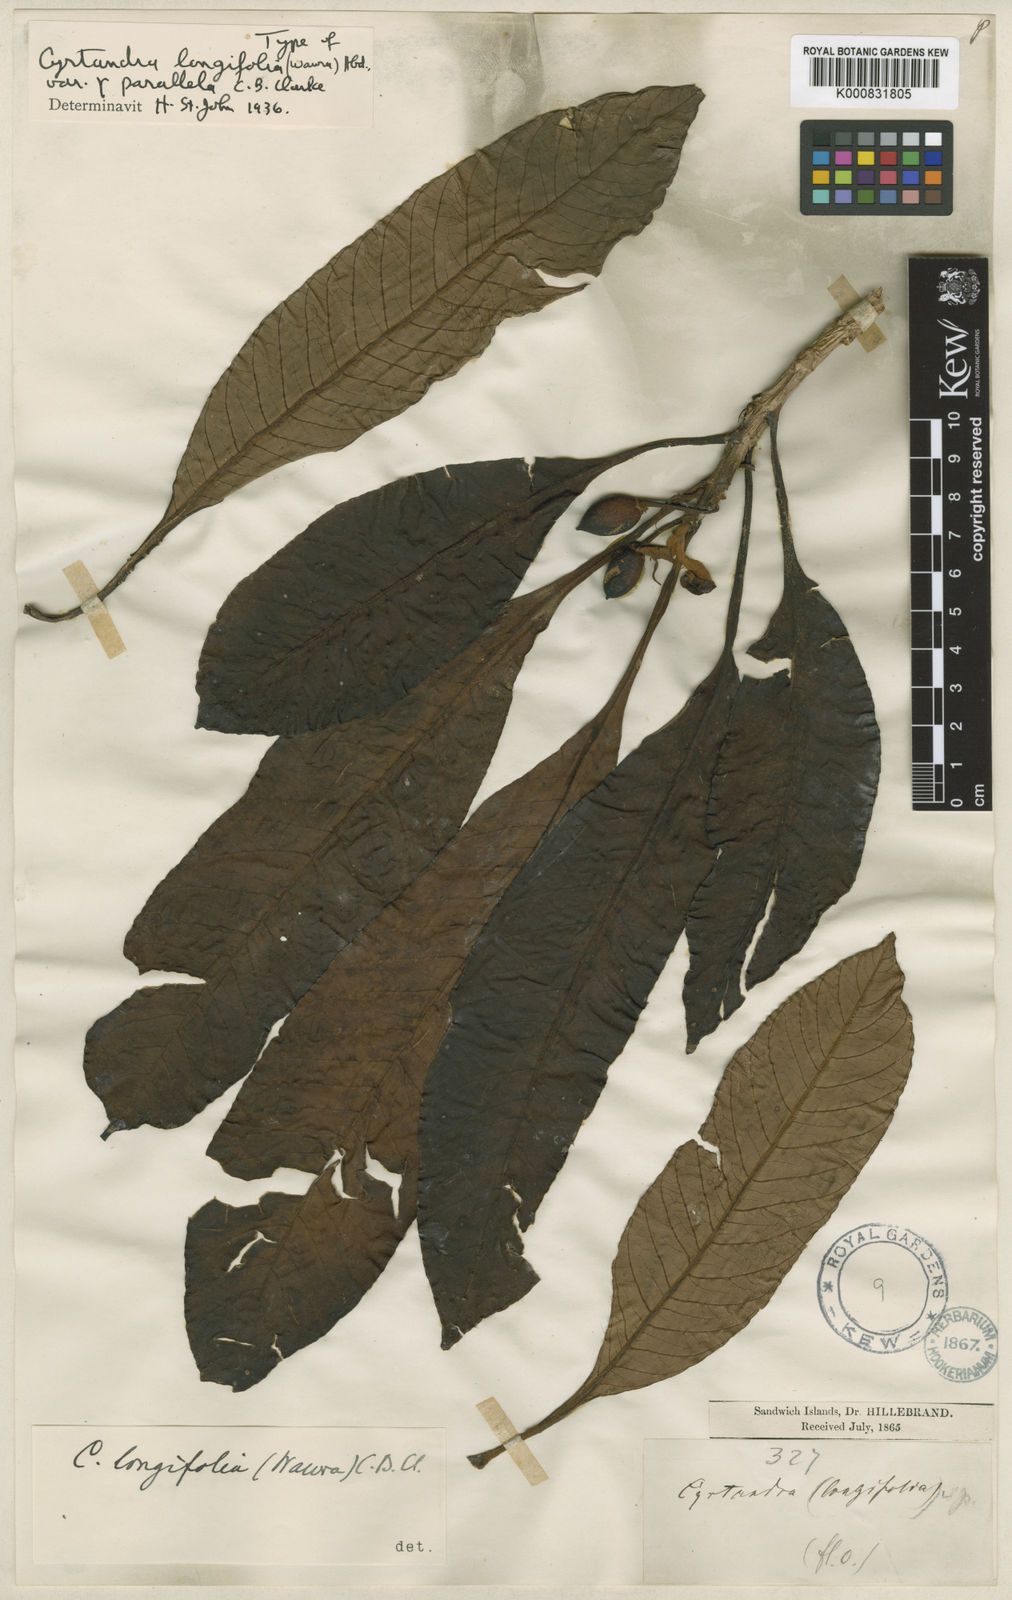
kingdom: Plantae
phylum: Tracheophyta
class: Magnoliopsida
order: Lamiales
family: Gesneriaceae
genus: Cyrtandra
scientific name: Cyrtandra longifolia
